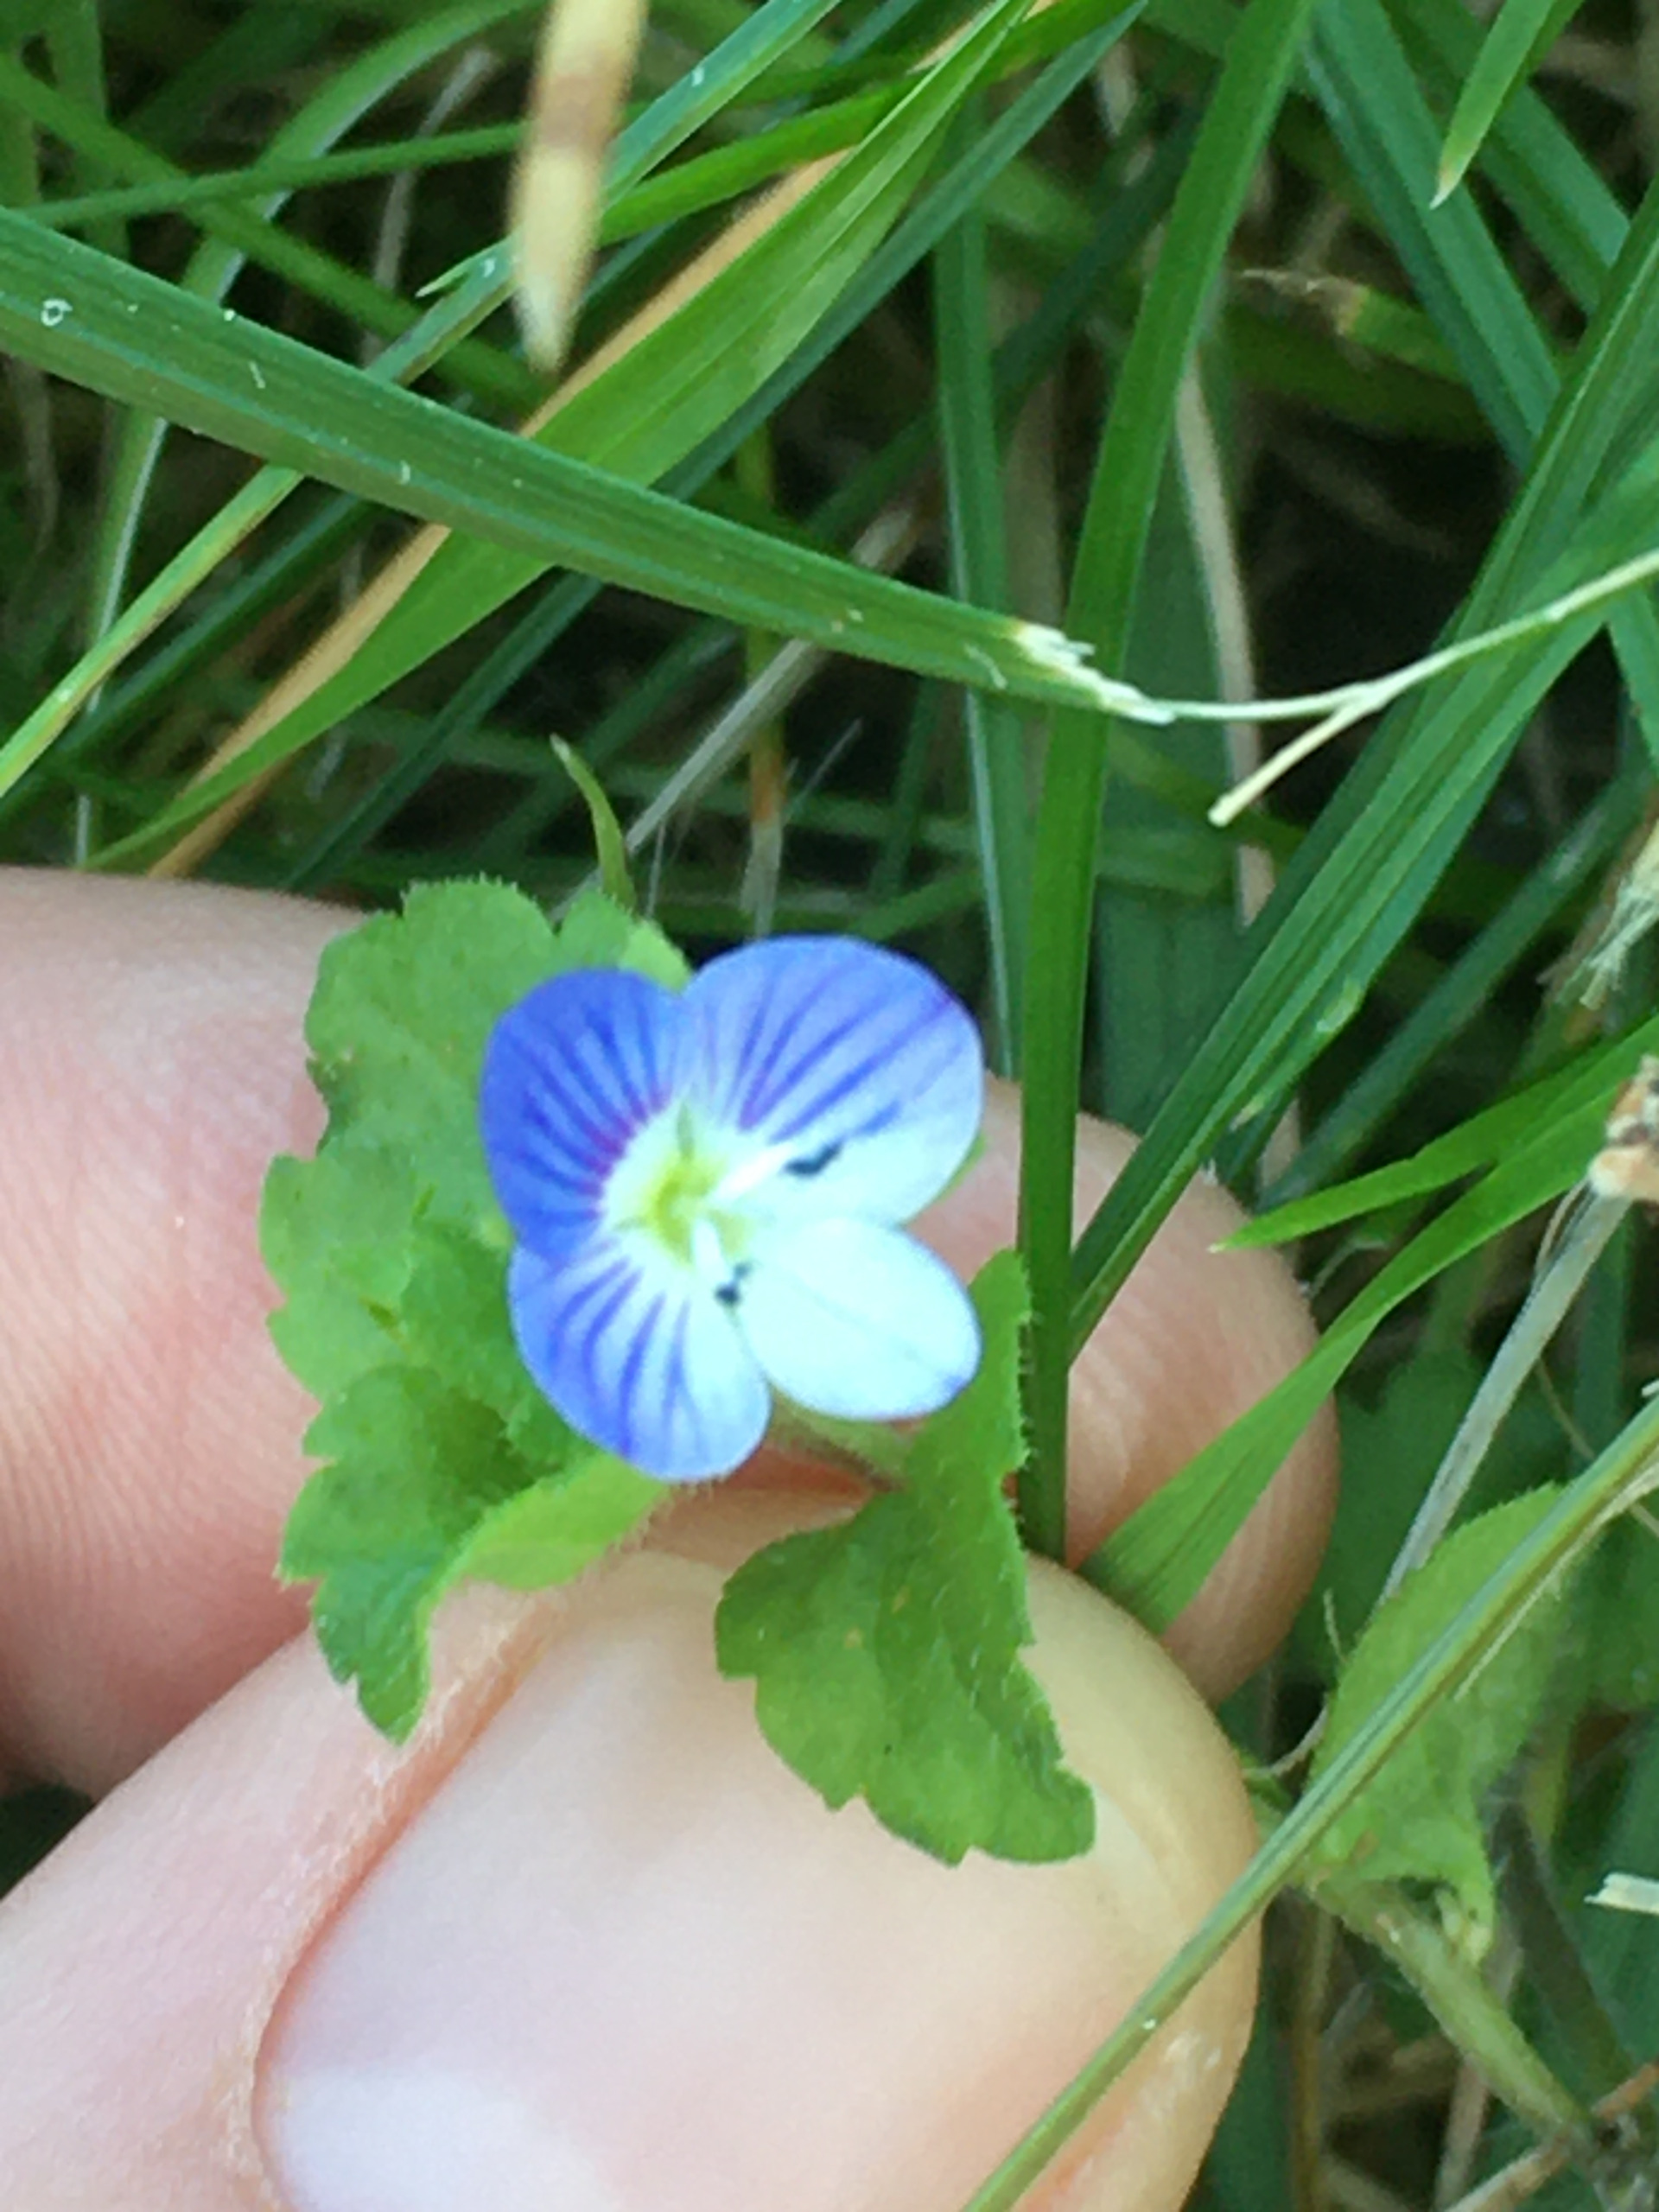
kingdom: Plantae
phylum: Tracheophyta
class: Magnoliopsida
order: Lamiales
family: Plantaginaceae
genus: Veronica
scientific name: Veronica persica
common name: Storkronet ærenpris
